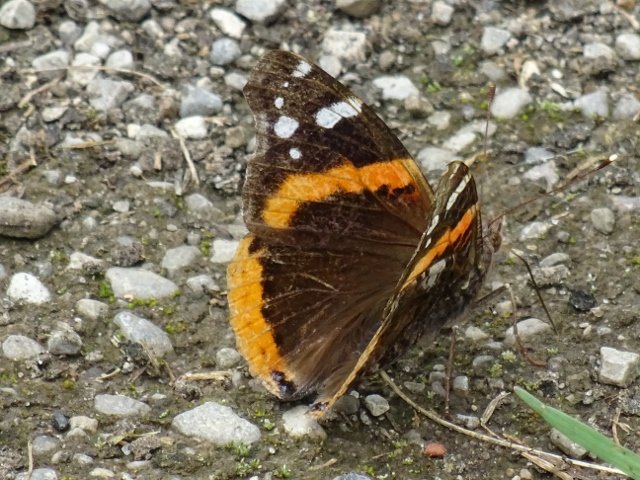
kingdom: Animalia
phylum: Arthropoda
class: Insecta
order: Lepidoptera
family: Nymphalidae
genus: Vanessa
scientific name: Vanessa atalanta
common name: Red Admiral
